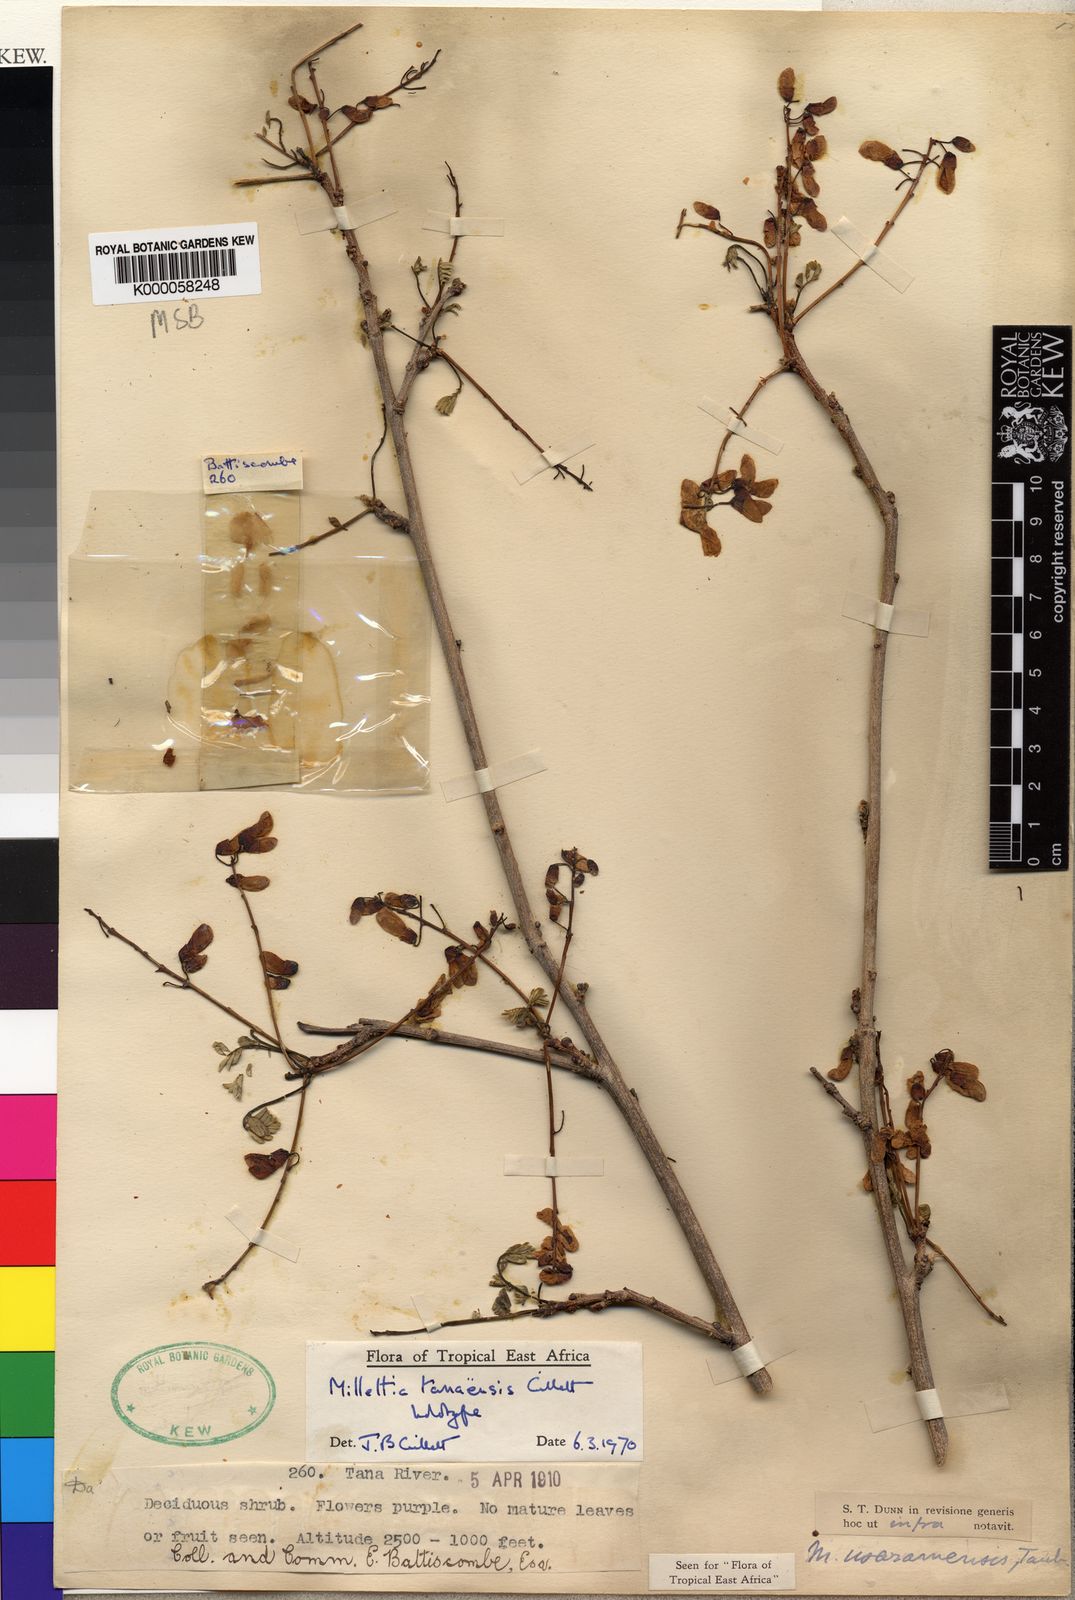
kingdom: Plantae
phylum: Tracheophyta
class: Magnoliopsida
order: Fabales
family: Fabaceae
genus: Millettia
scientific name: Millettia tanaensis
